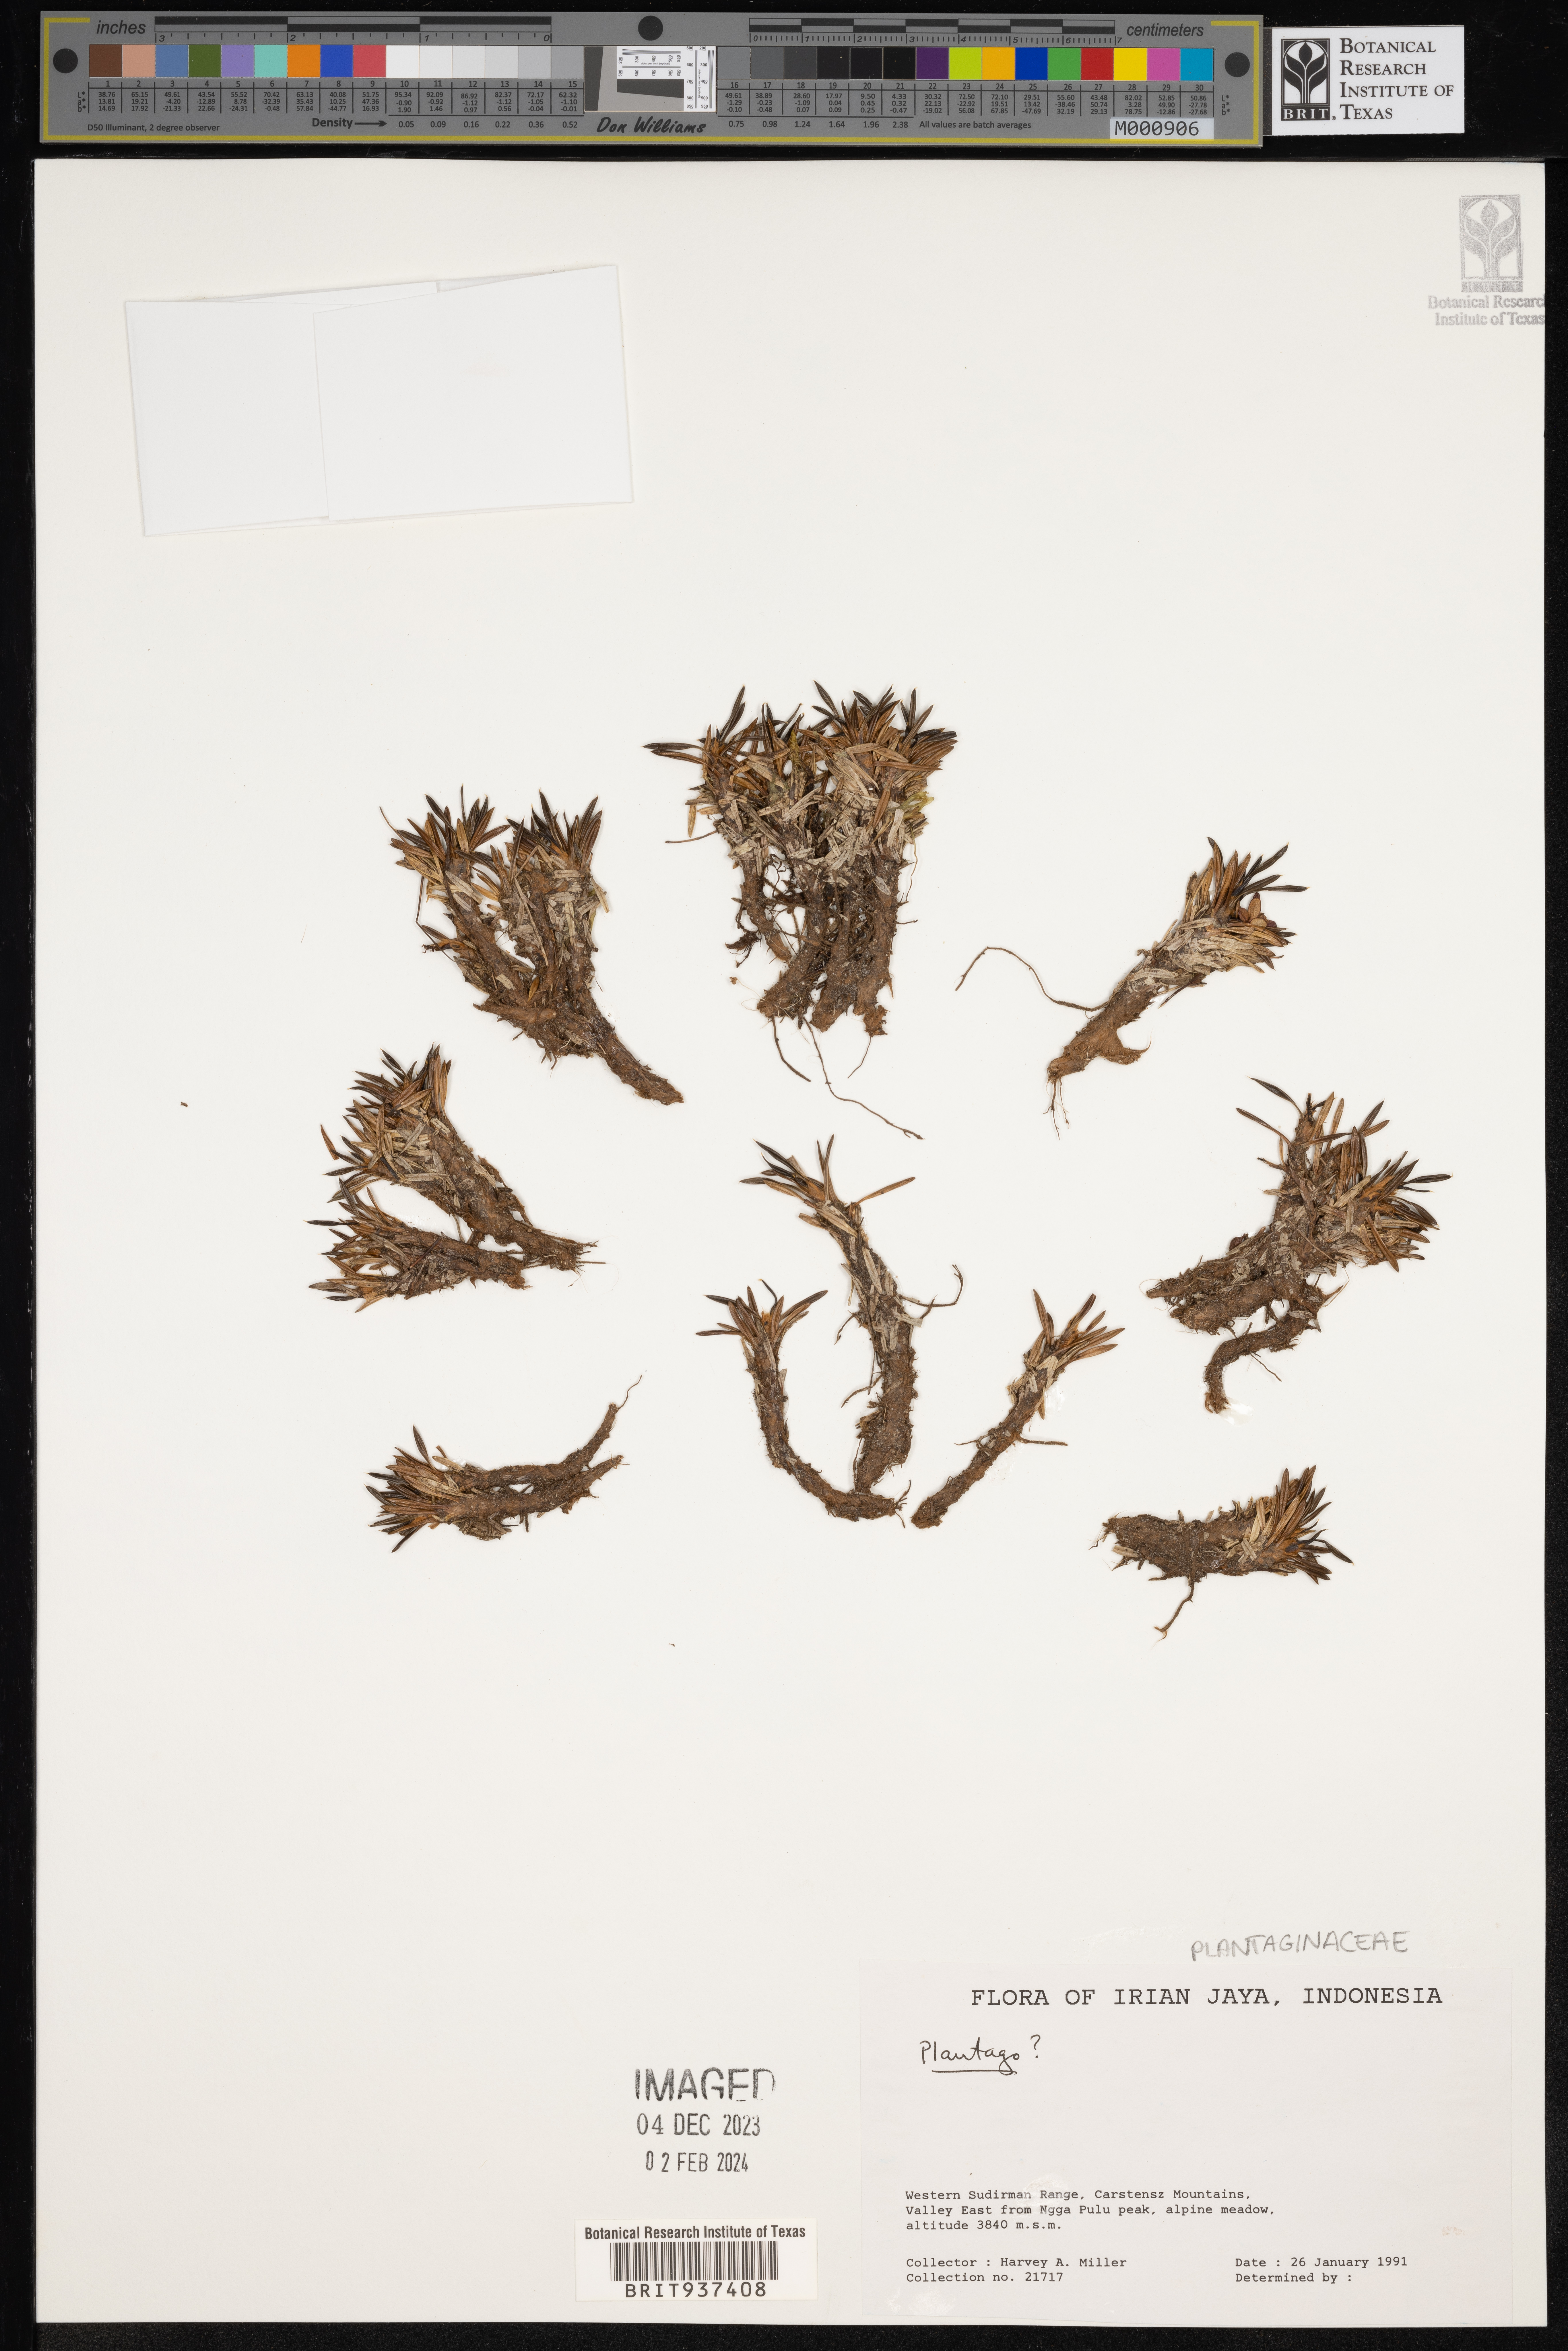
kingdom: Plantae
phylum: Tracheophyta
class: Magnoliopsida
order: Lamiales
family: Plantaginaceae
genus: Plantago
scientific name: Plantago
